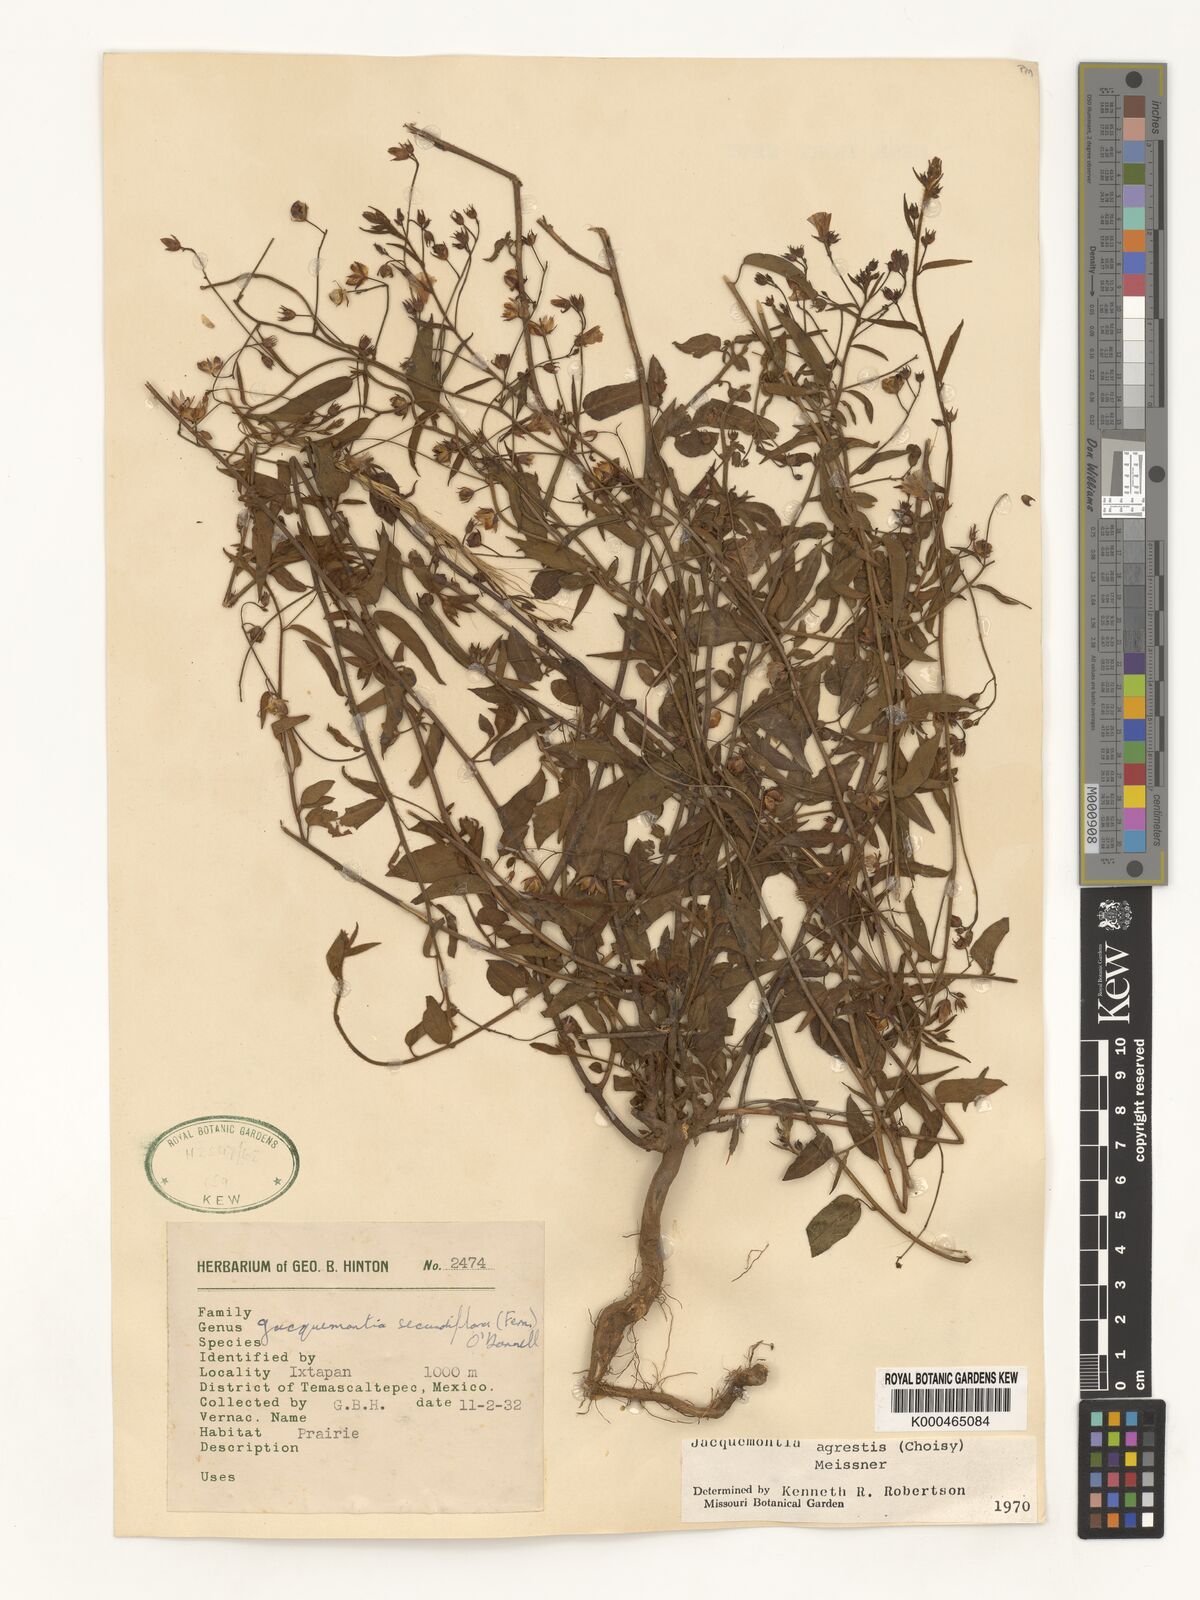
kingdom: Plantae
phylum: Tracheophyta
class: Magnoliopsida
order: Solanales
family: Convolvulaceae
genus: Jacquemontia
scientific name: Jacquemontia agrestis
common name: Midnightblue clustervine
